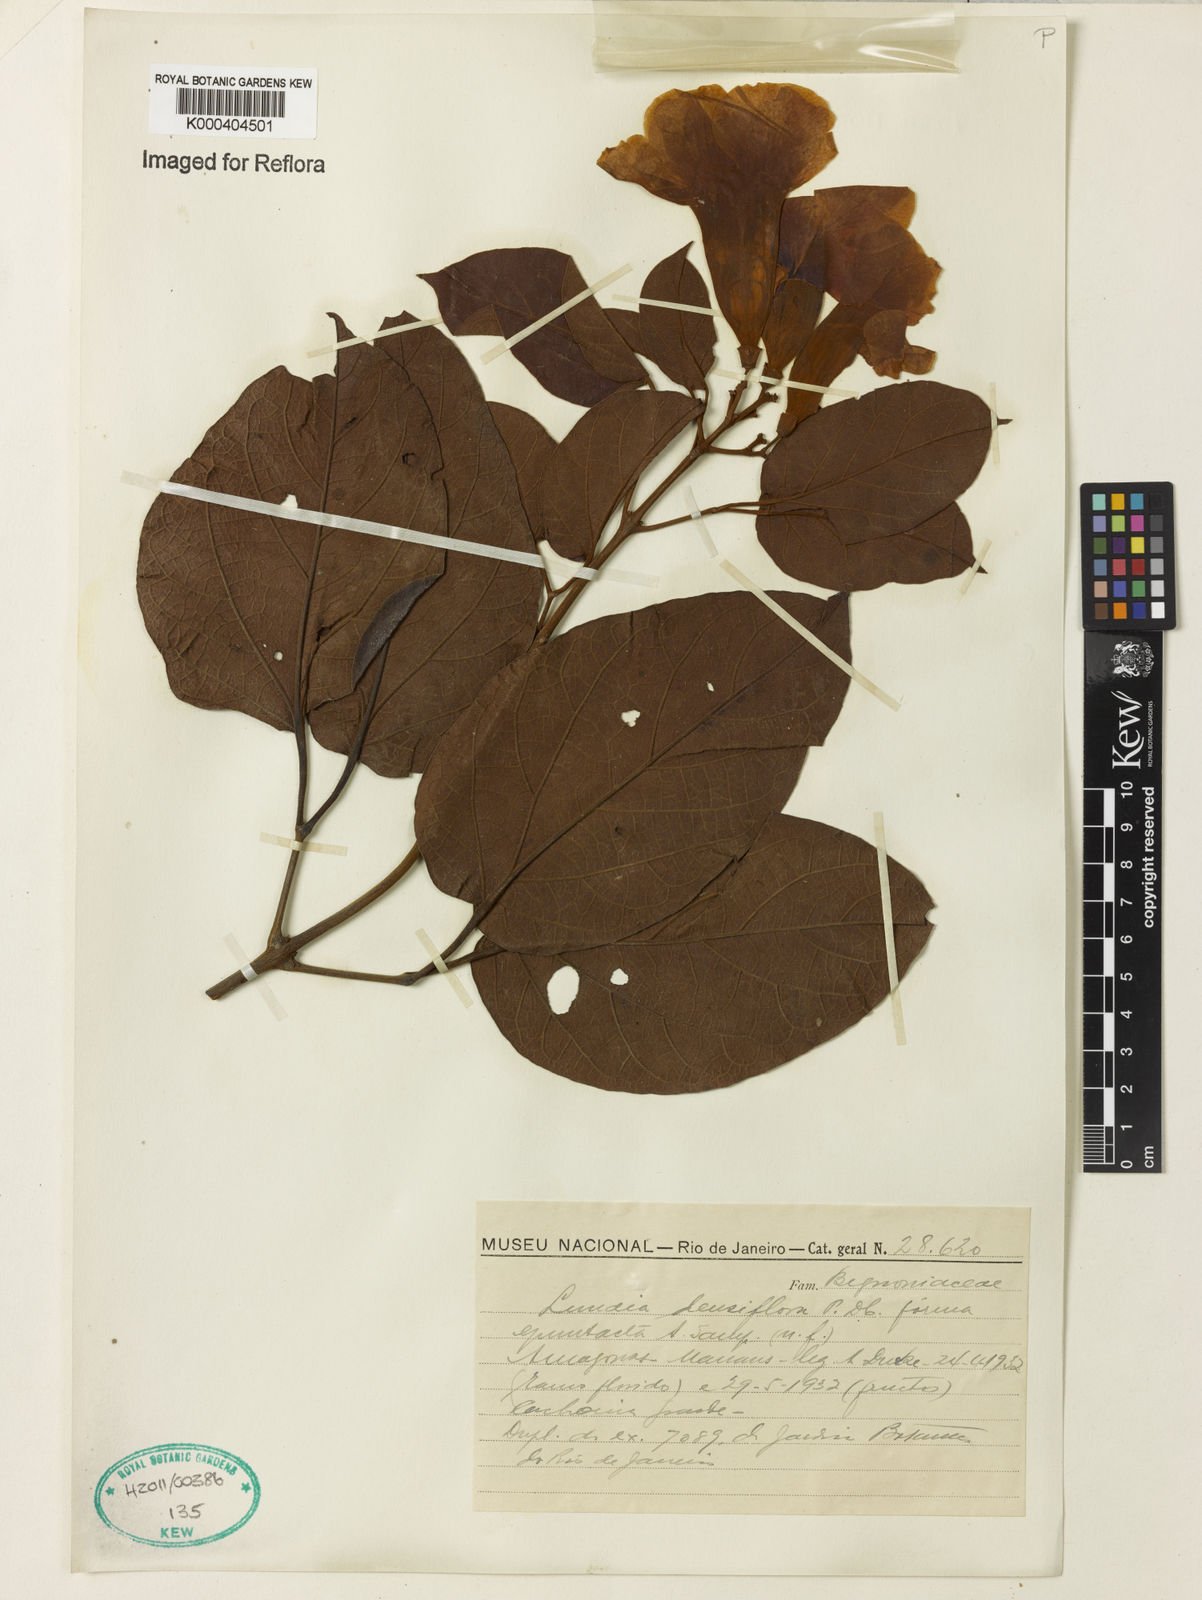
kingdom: Plantae
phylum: Tracheophyta
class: Magnoliopsida
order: Lamiales
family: Bignoniaceae
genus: Lundia
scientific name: Lundia densiflora
